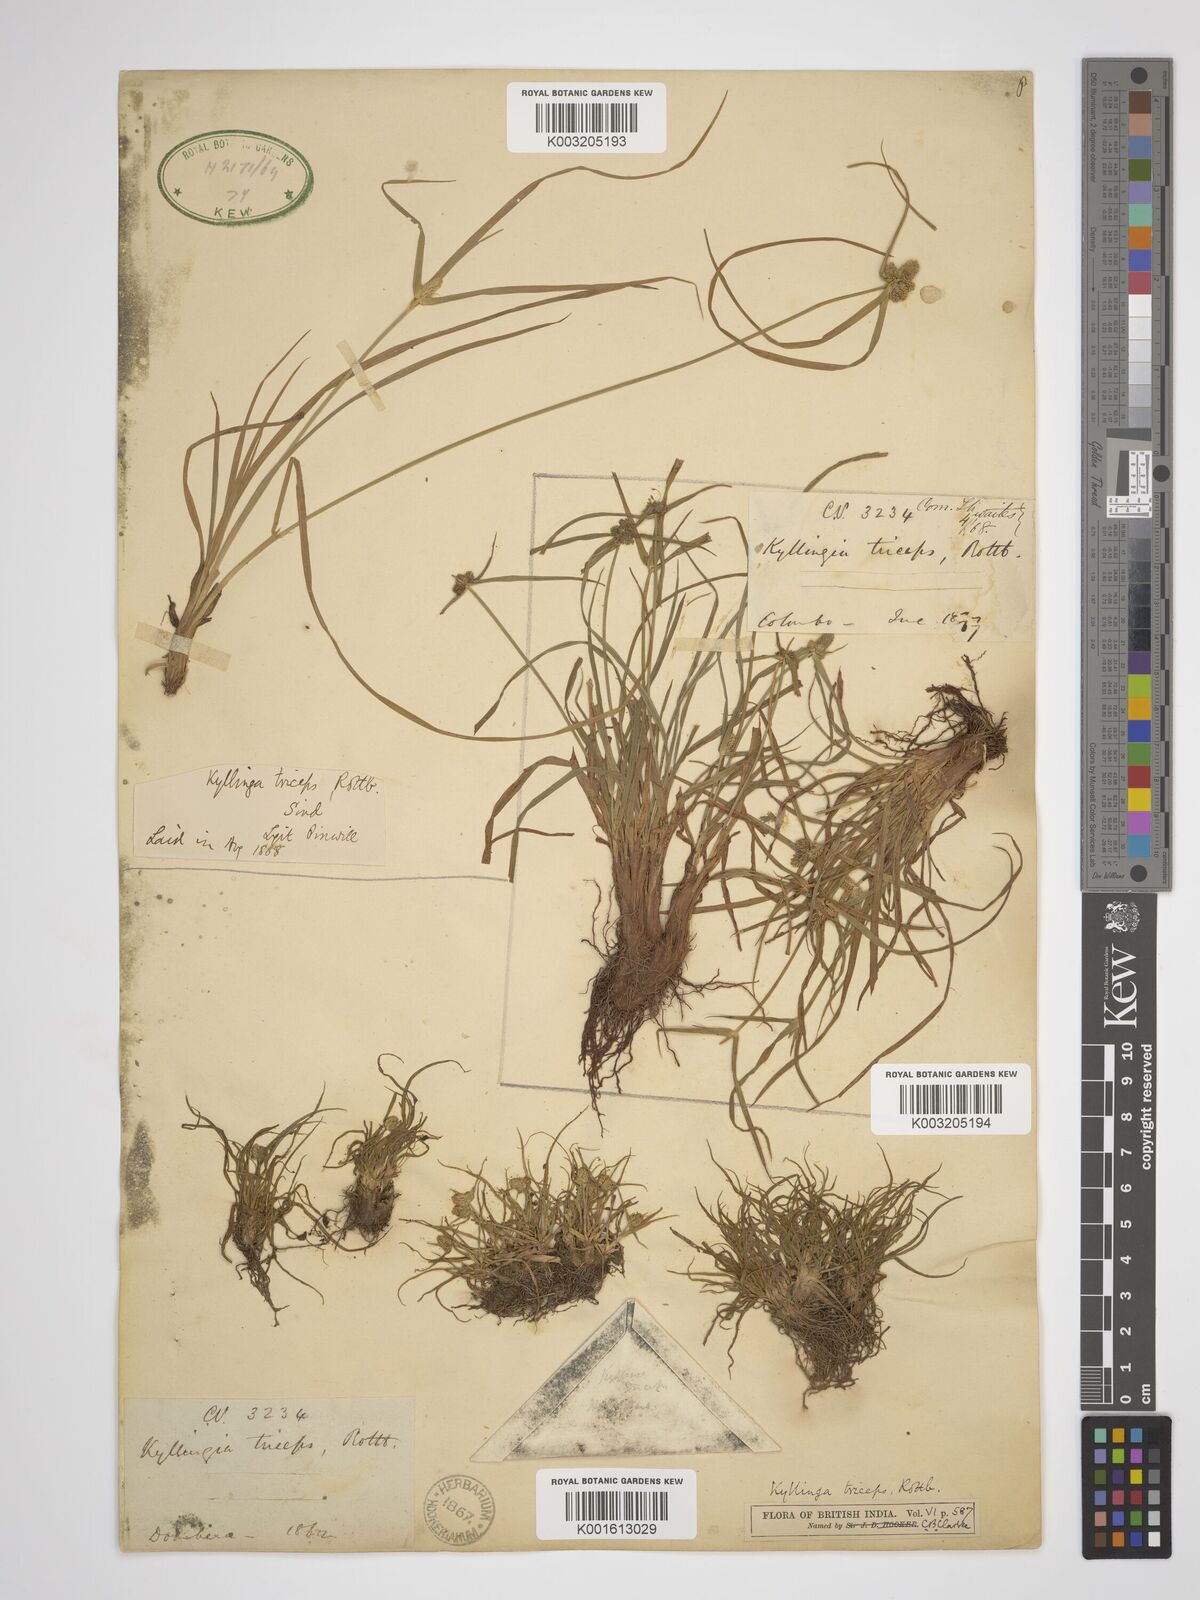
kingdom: Plantae
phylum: Tracheophyta
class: Liliopsida
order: Poales
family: Cyperaceae
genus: Cyperus
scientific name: Cyperus dubius
